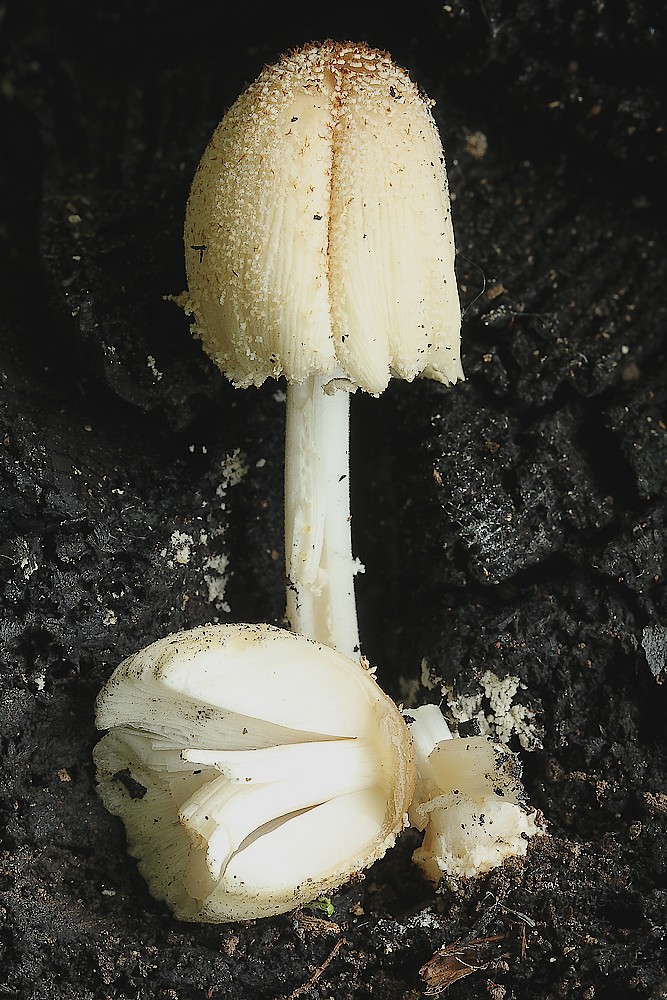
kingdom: Fungi
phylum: Basidiomycota
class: Agaricomycetes
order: Agaricales
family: Psathyrellaceae
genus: Coprinellus
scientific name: Coprinellus domesticus
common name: hus-blækhat
